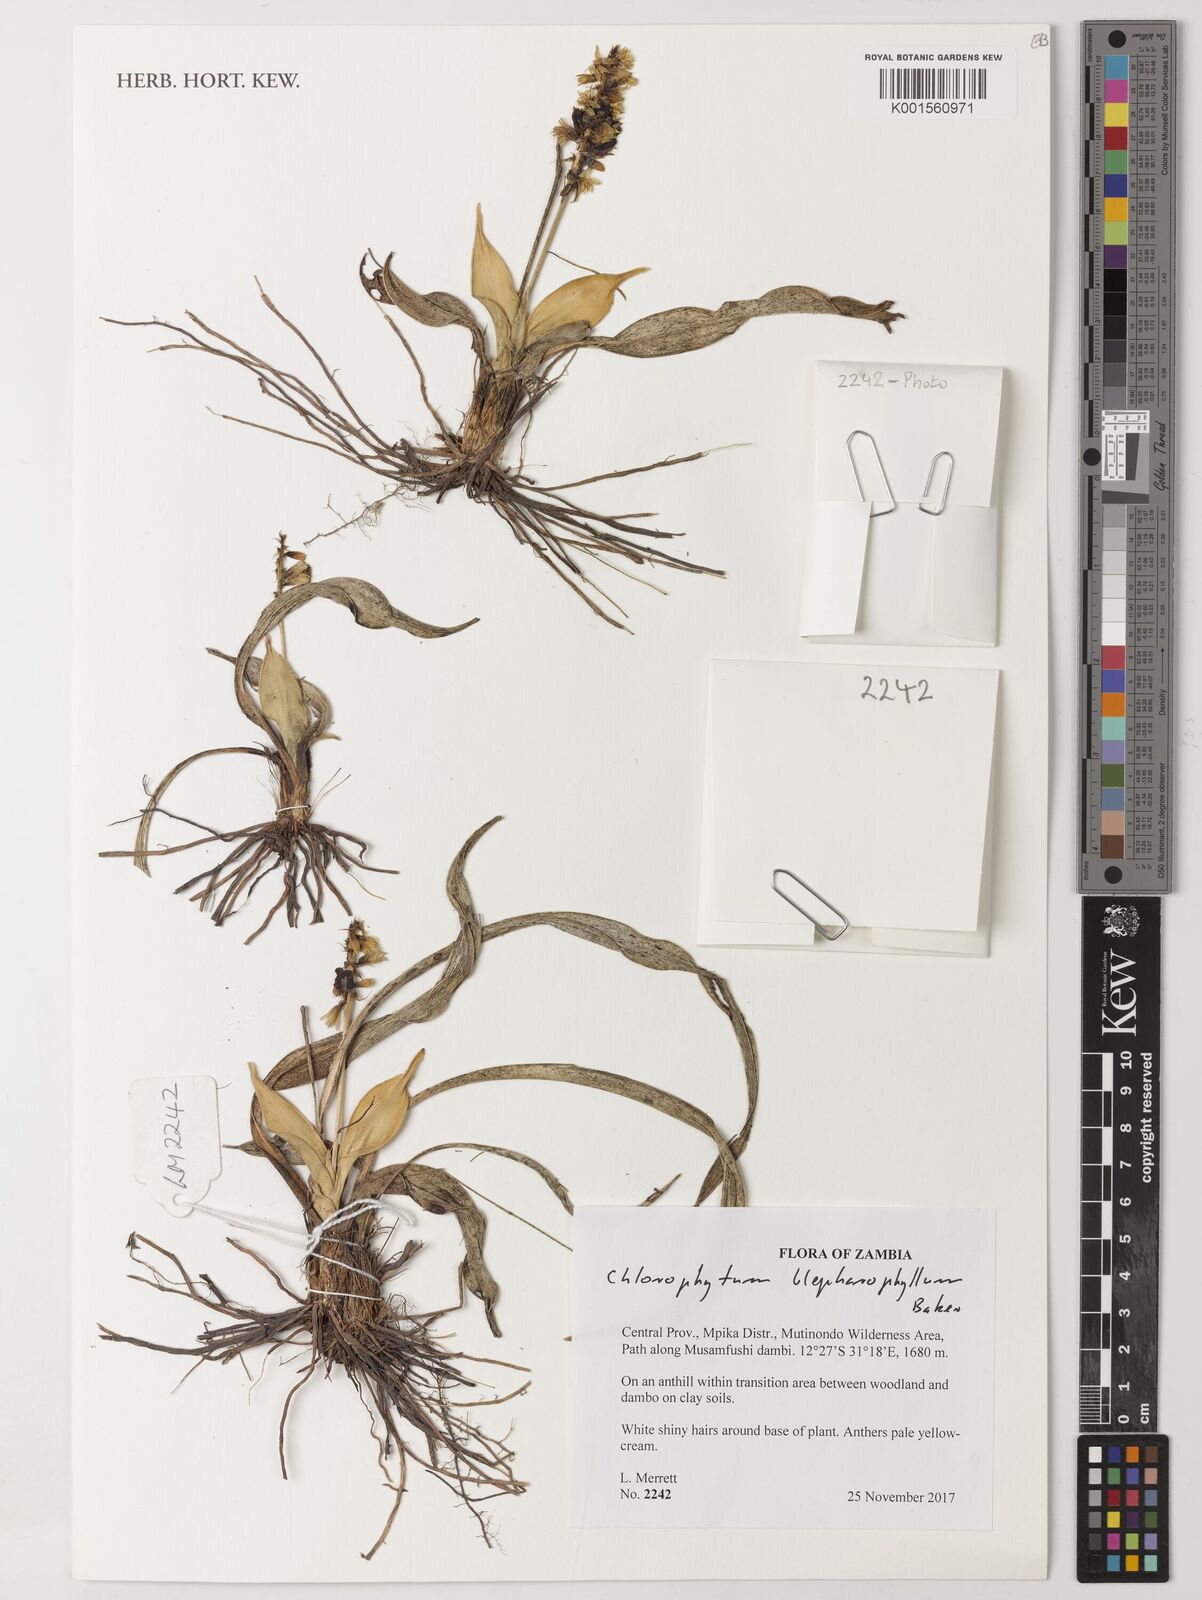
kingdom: Plantae
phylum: Tracheophyta
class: Liliopsida
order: Asparagales
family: Asparagaceae
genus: Chlorophytum
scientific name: Chlorophytum blepharophyllum
